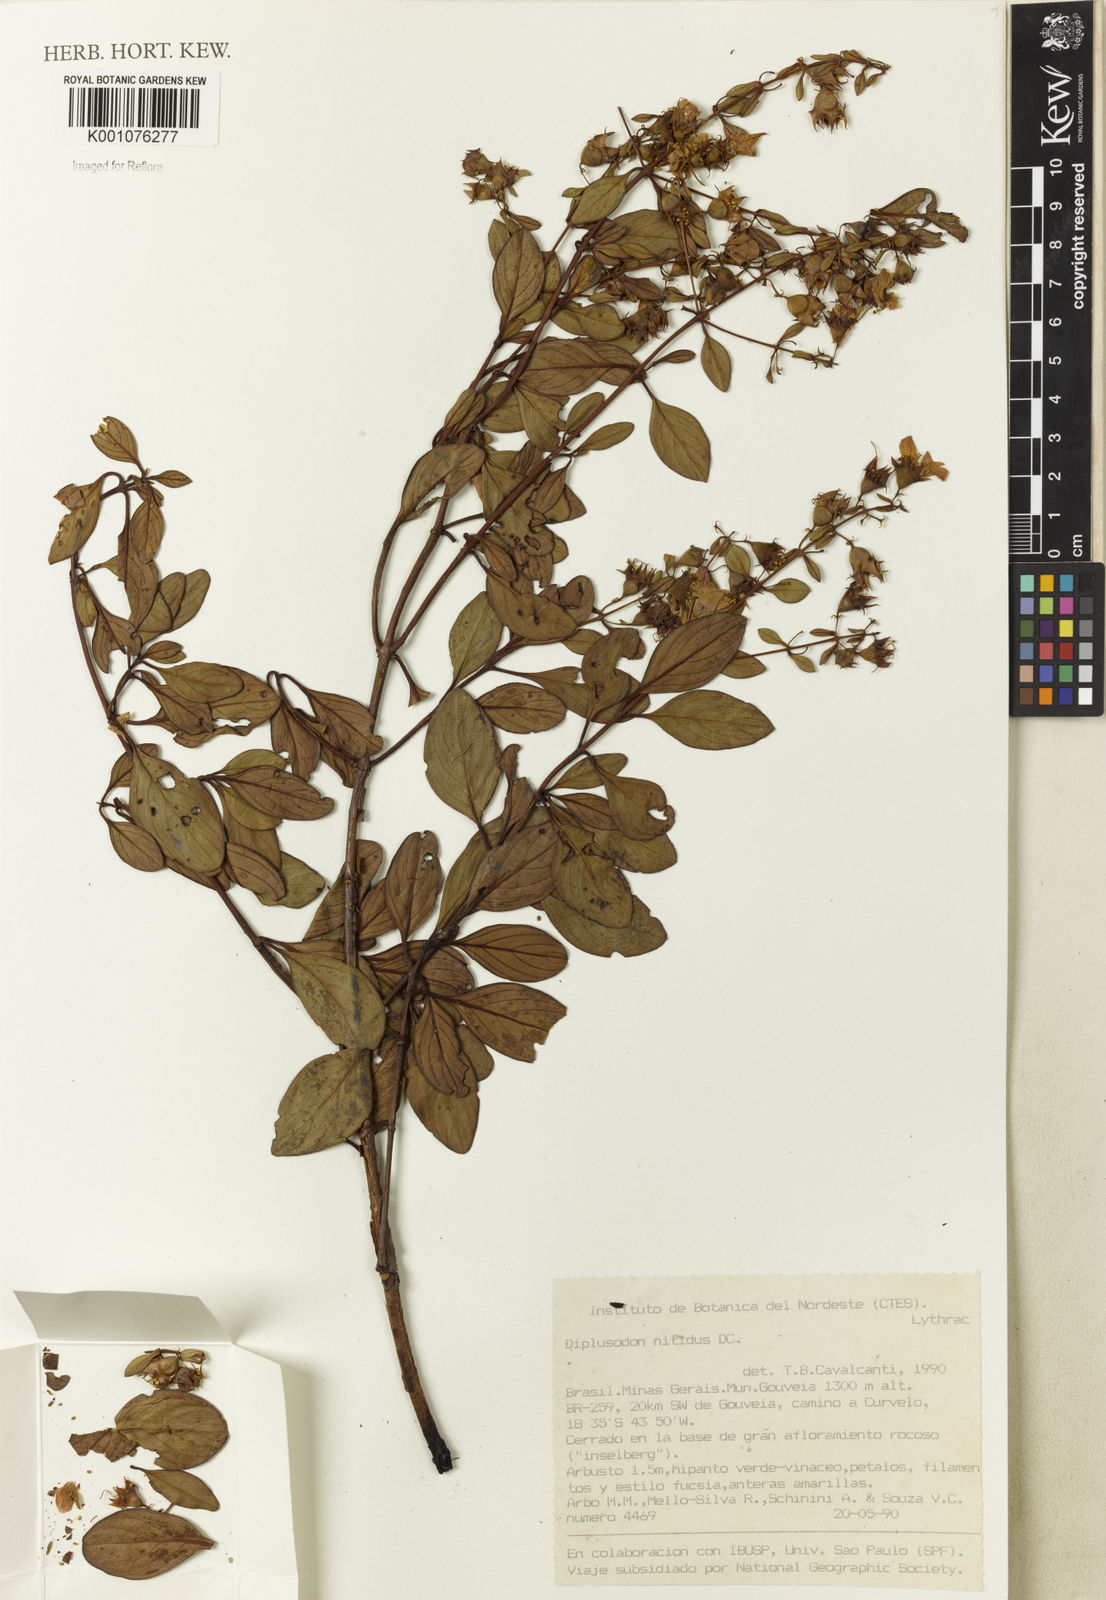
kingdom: Plantae
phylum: Tracheophyta
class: Magnoliopsida
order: Myrtales
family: Lythraceae
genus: Diplusodon
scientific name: Diplusodon nitidus
